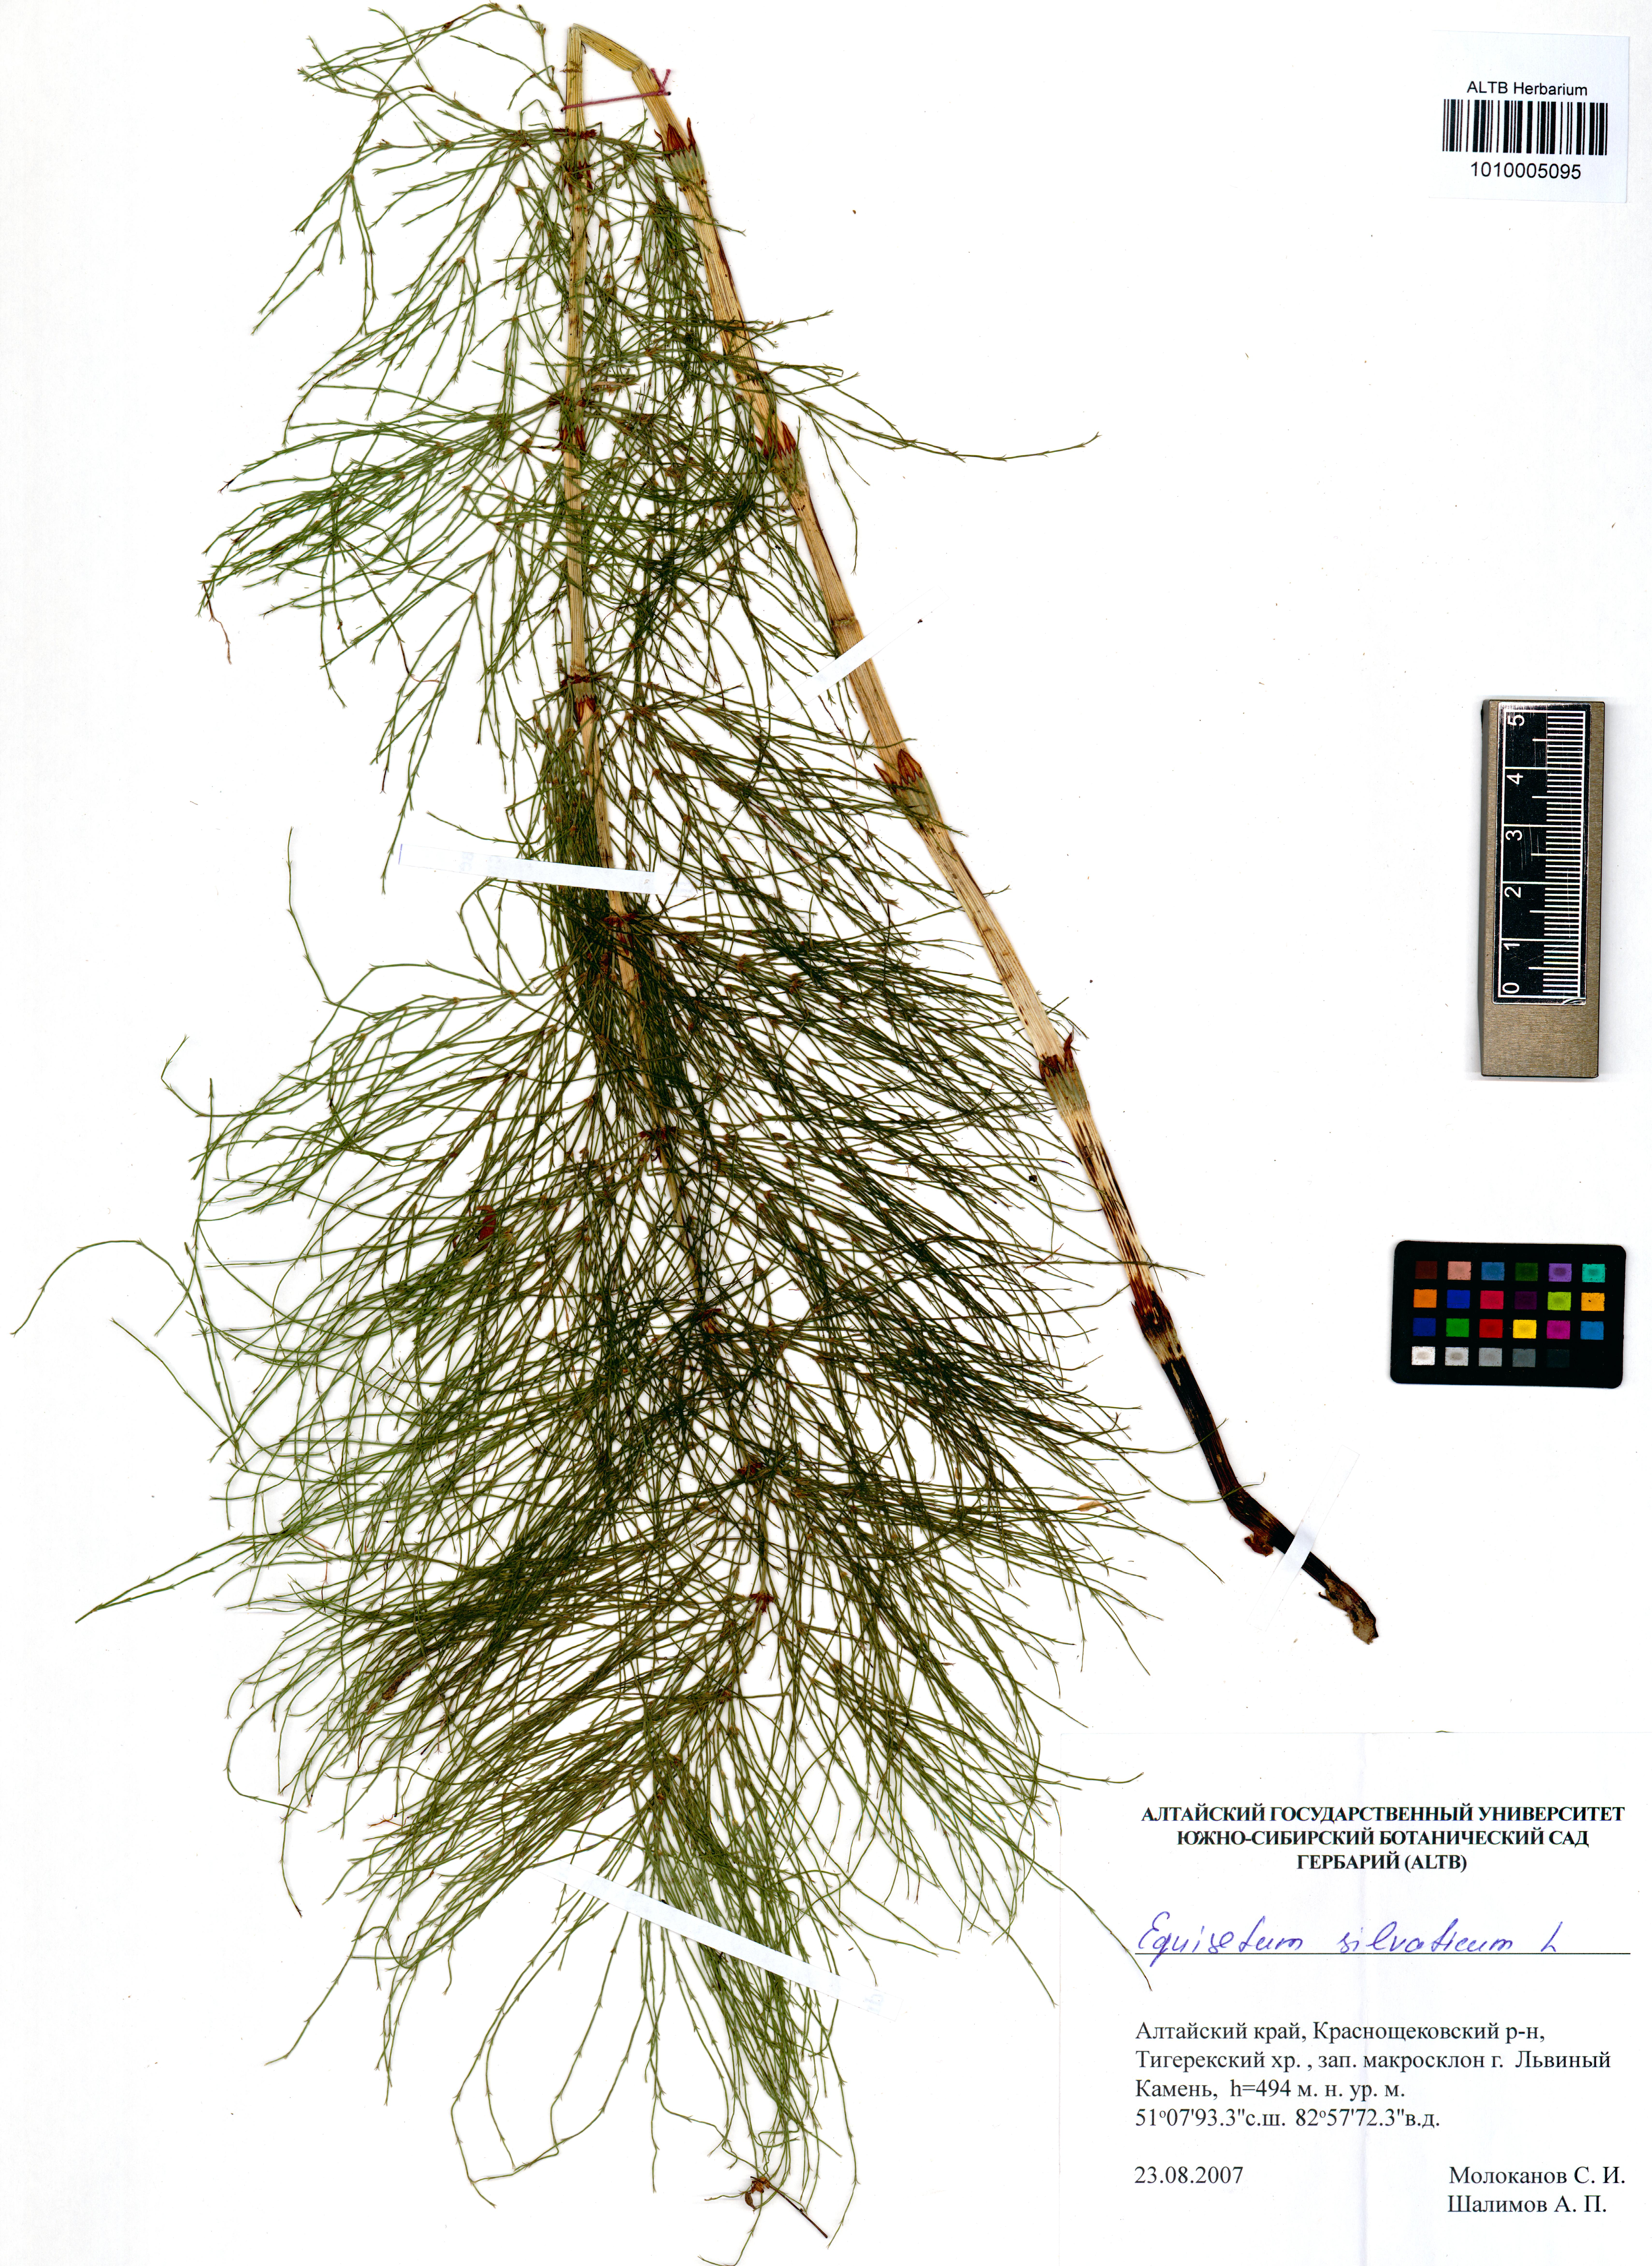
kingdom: Plantae
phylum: Tracheophyta
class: Polypodiopsida
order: Equisetales
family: Equisetaceae
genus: Equisetum
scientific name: Equisetum sylvaticum
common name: Wood horsetail
